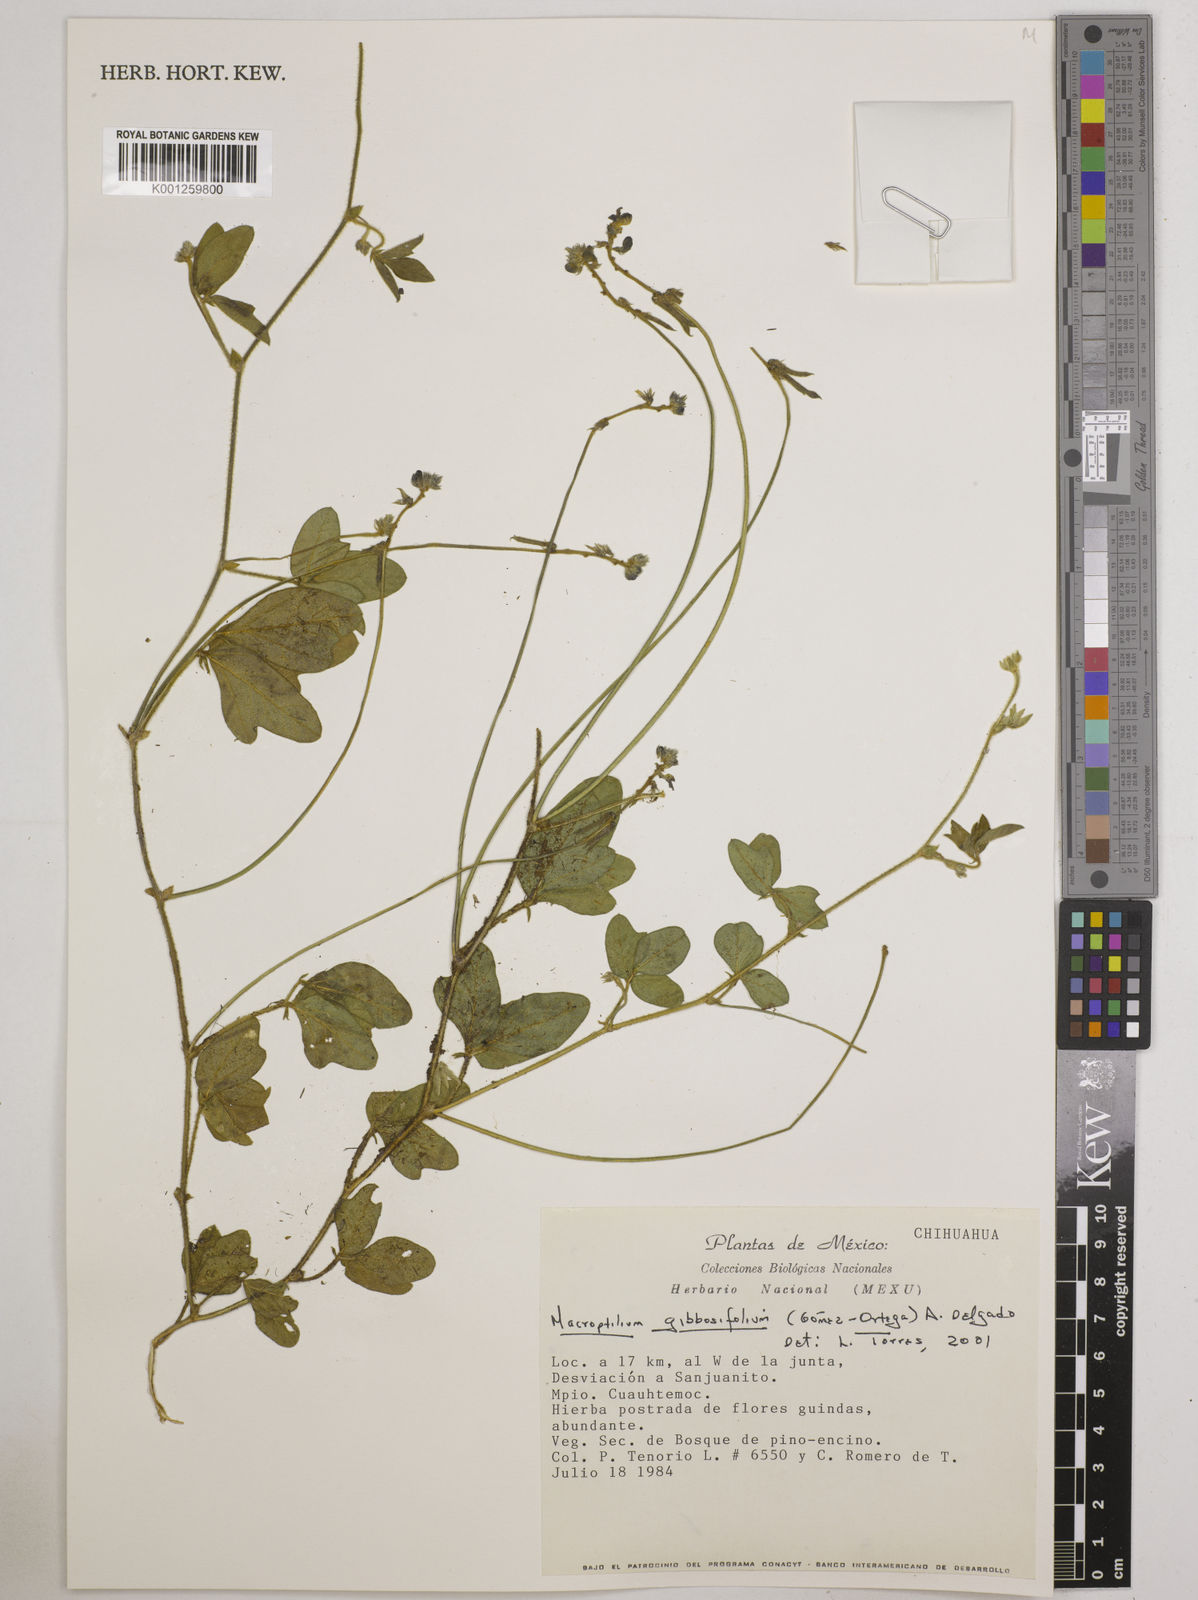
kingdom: Plantae
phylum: Tracheophyta
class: Magnoliopsida
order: Fabales
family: Fabaceae
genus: Macroptilium
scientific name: Macroptilium gibbosifolium
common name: Variableleaf bushbean
